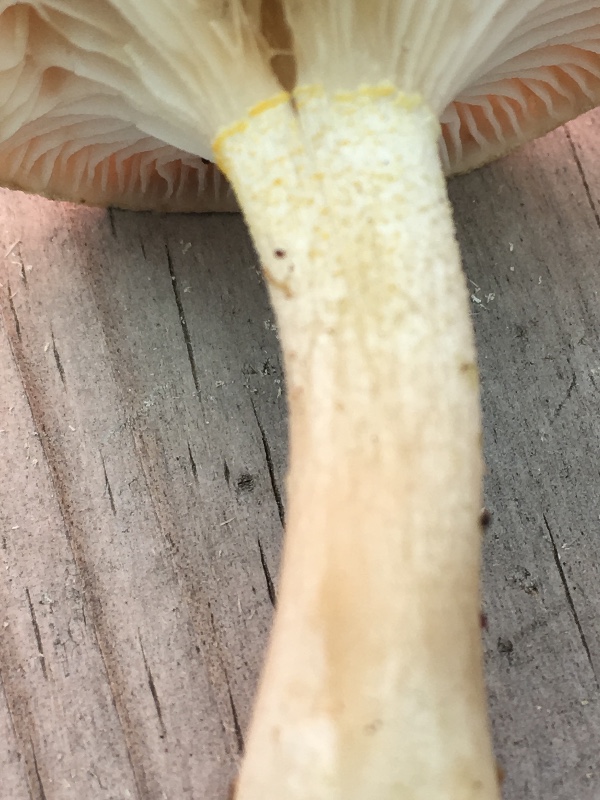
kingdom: Fungi
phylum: Basidiomycota
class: Agaricomycetes
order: Agaricales
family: Hygrophoraceae
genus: Hygrophorus
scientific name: Hygrophorus agathosmus
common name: vellugtende sneglehat
